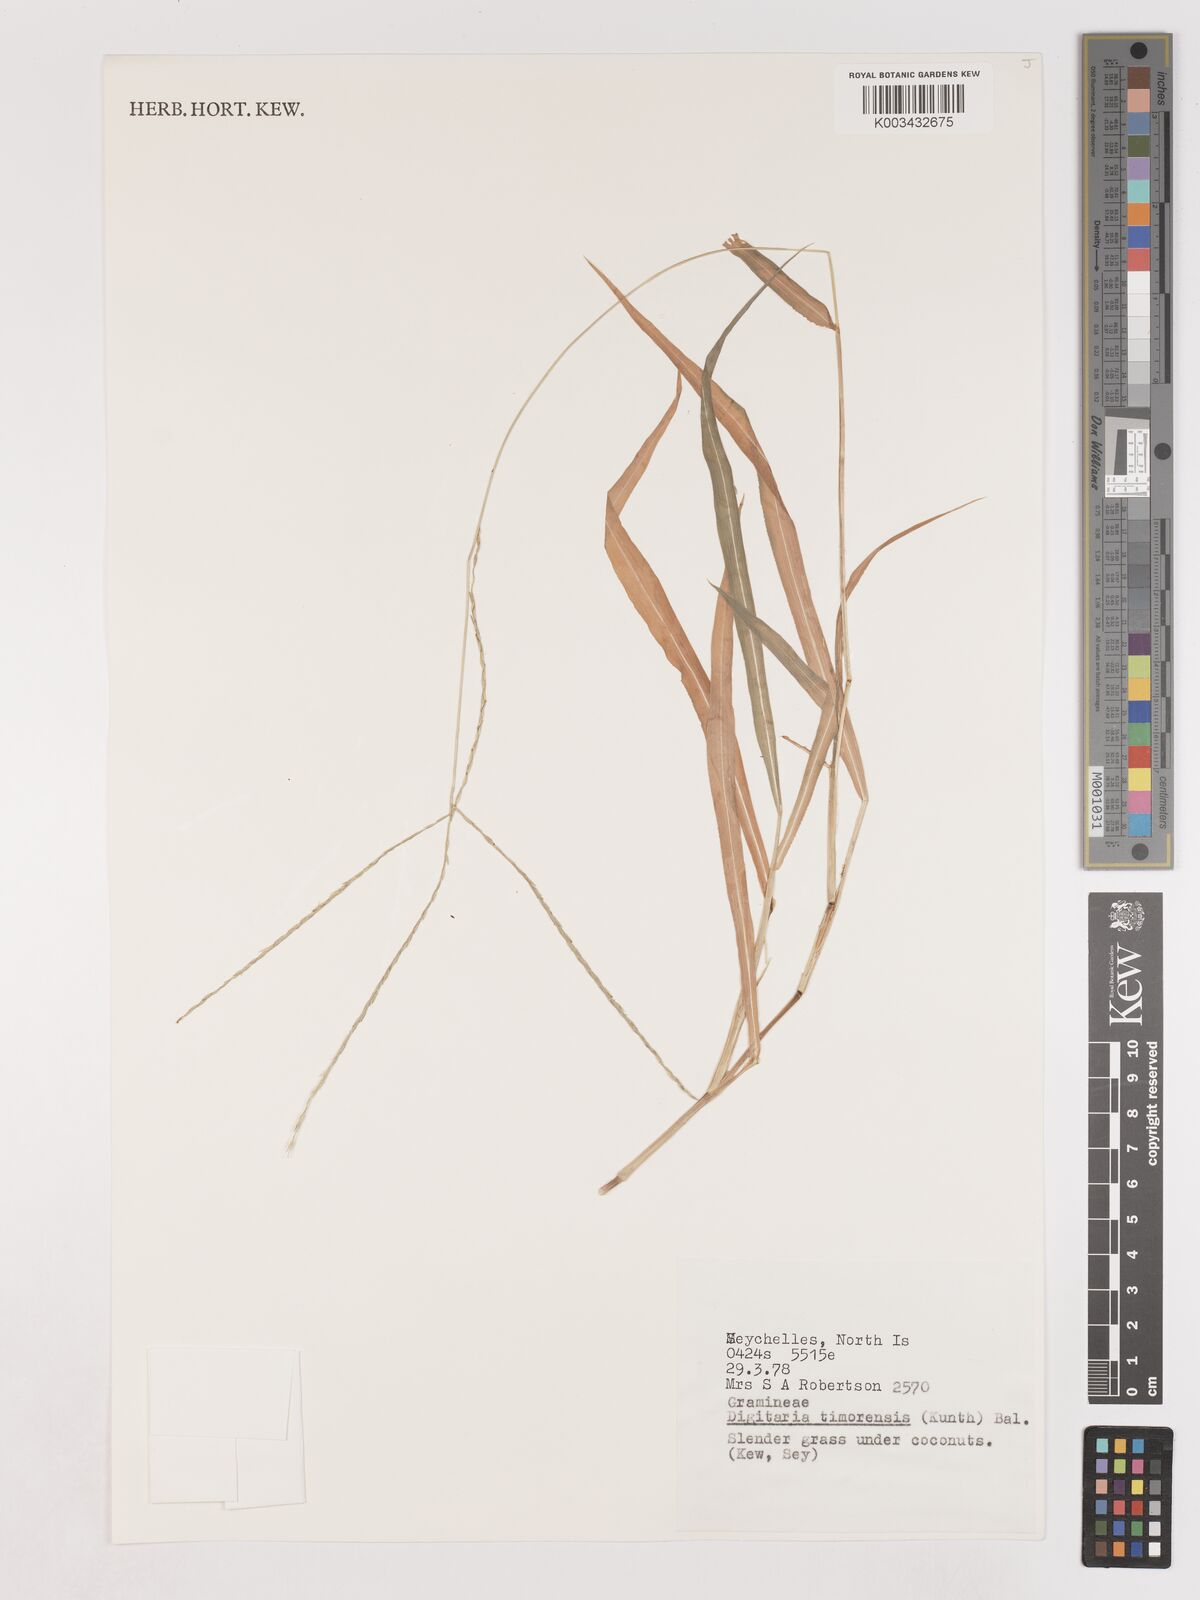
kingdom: Plantae
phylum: Tracheophyta
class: Liliopsida
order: Poales
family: Poaceae
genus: Digitaria
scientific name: Digitaria radicosa
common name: Trailing crabgrass
